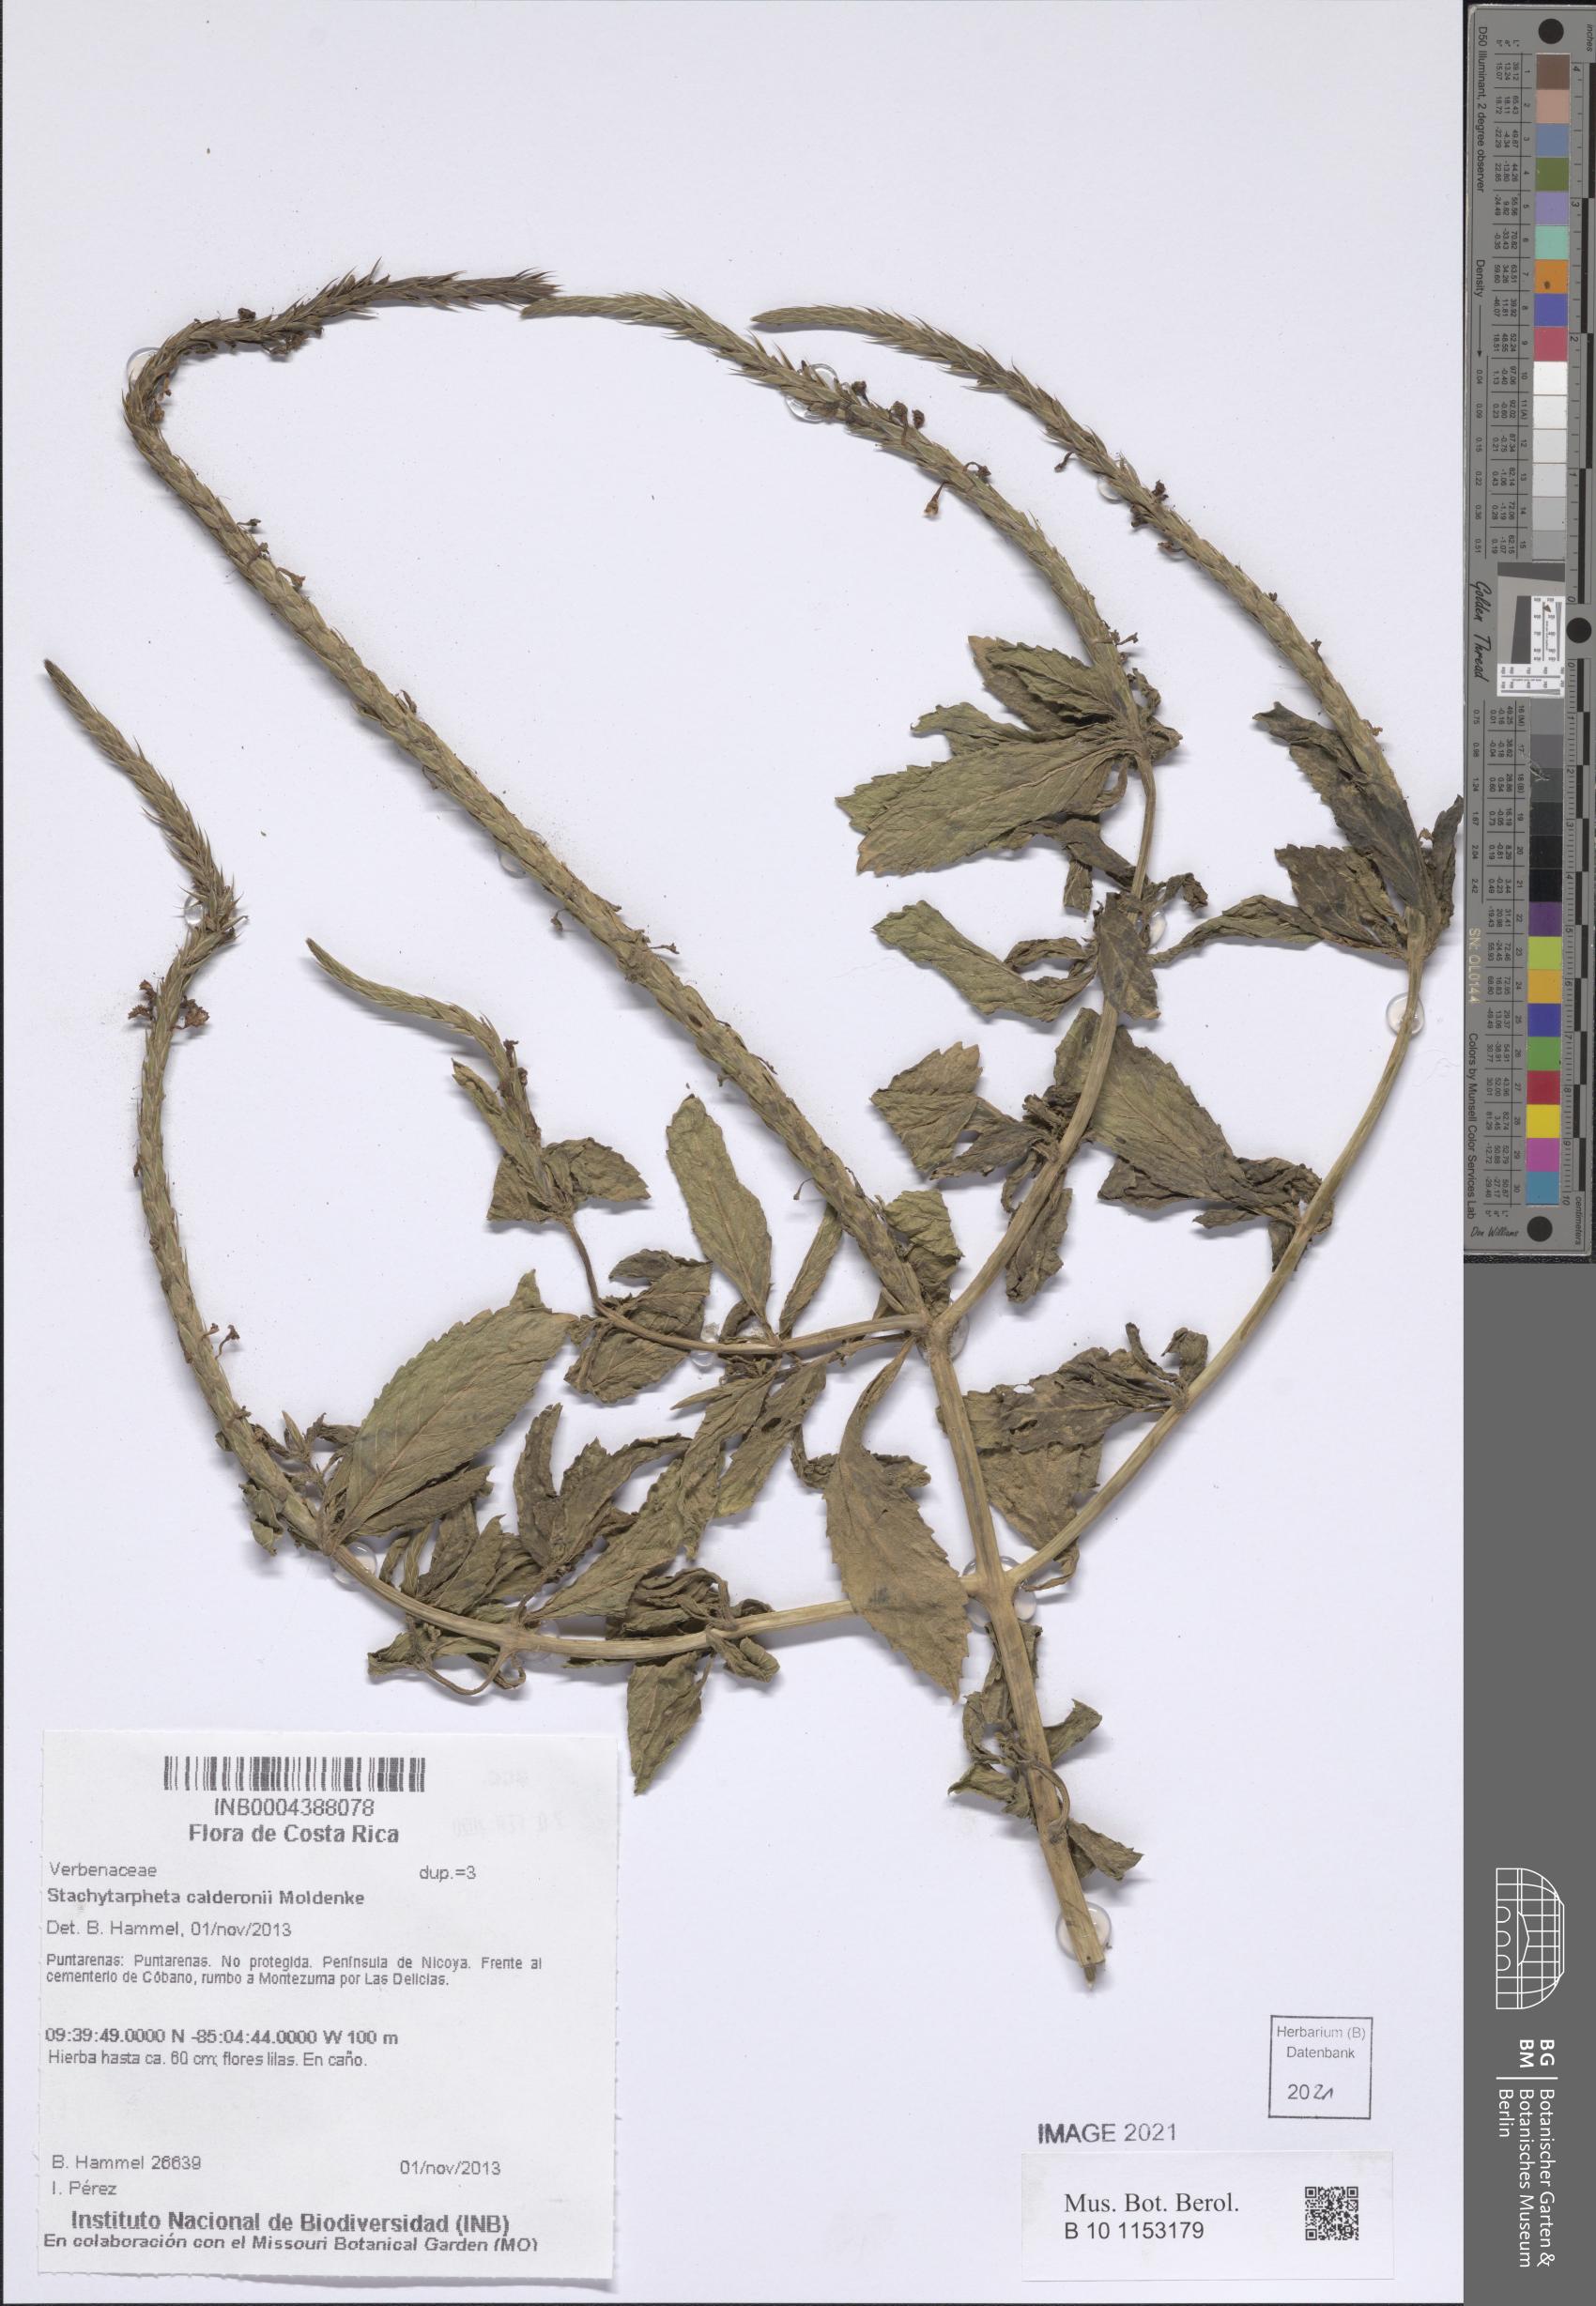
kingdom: Plantae
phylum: Tracheophyta
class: Magnoliopsida
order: Lamiales
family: Verbenaceae
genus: Stachytarpheta
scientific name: Stachytarpheta calderonii
